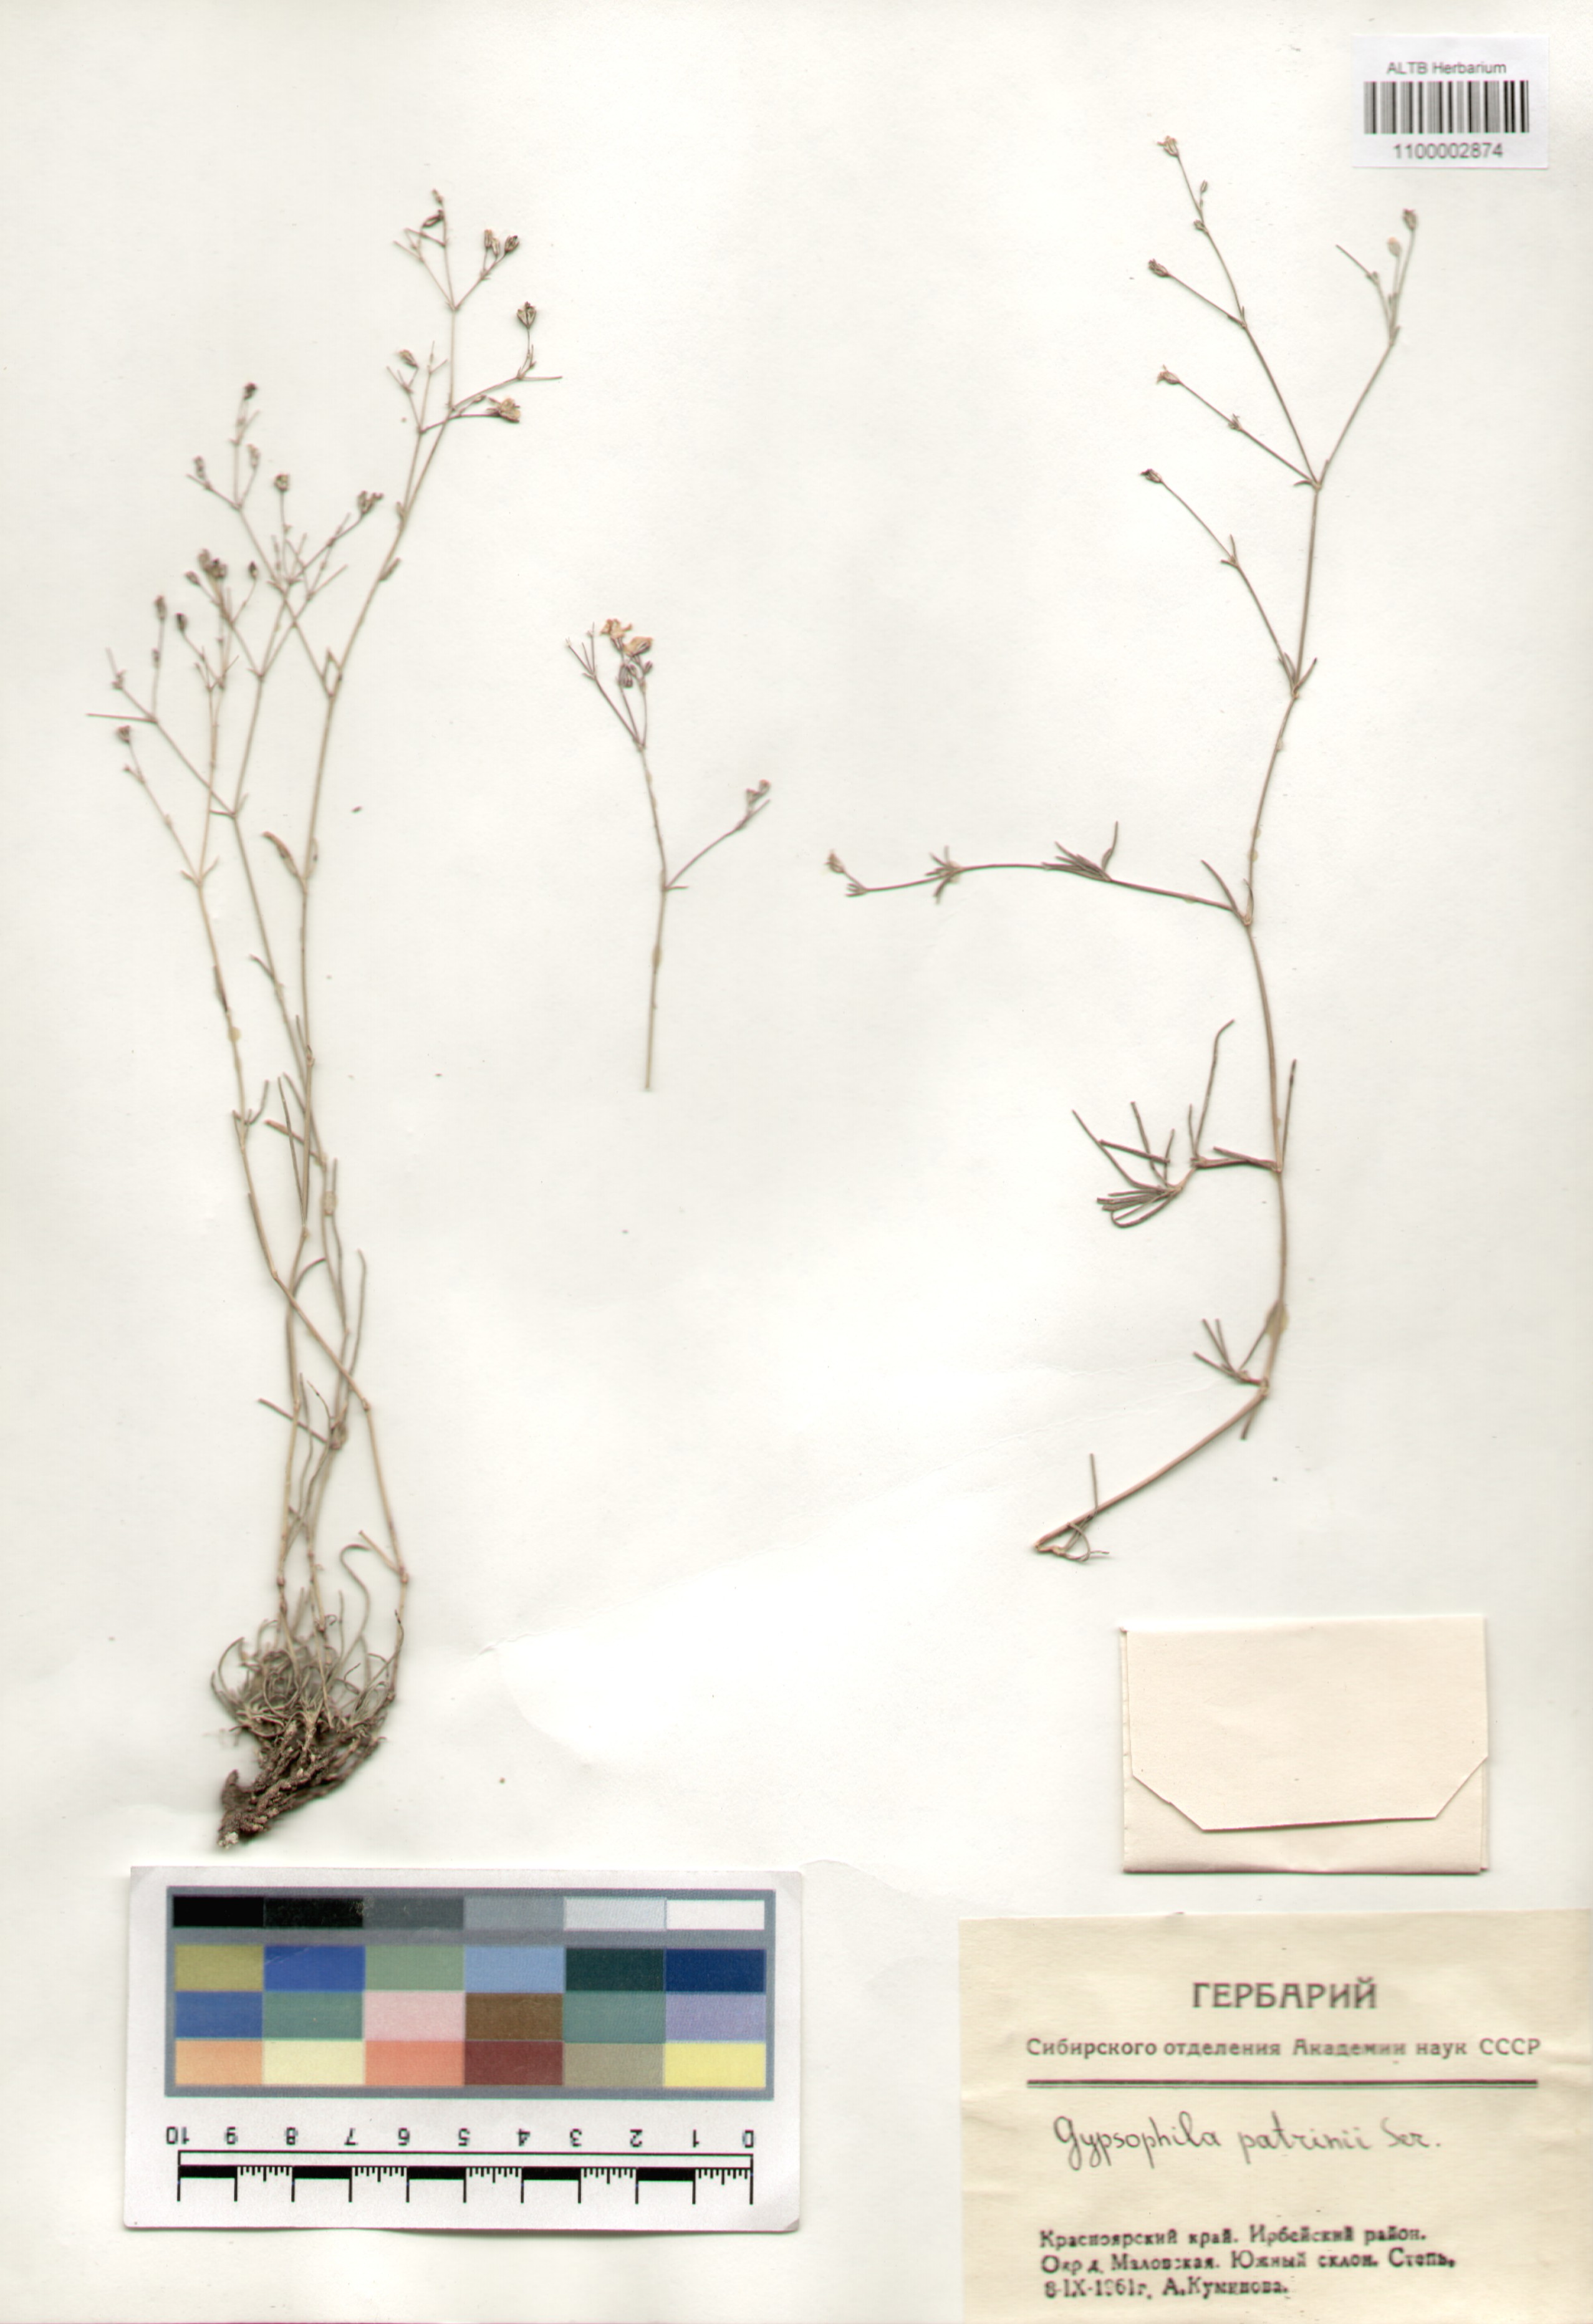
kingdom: Plantae
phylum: Tracheophyta
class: Magnoliopsida
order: Caryophyllales
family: Caryophyllaceae
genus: Gypsophila
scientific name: Gypsophila patrinii
